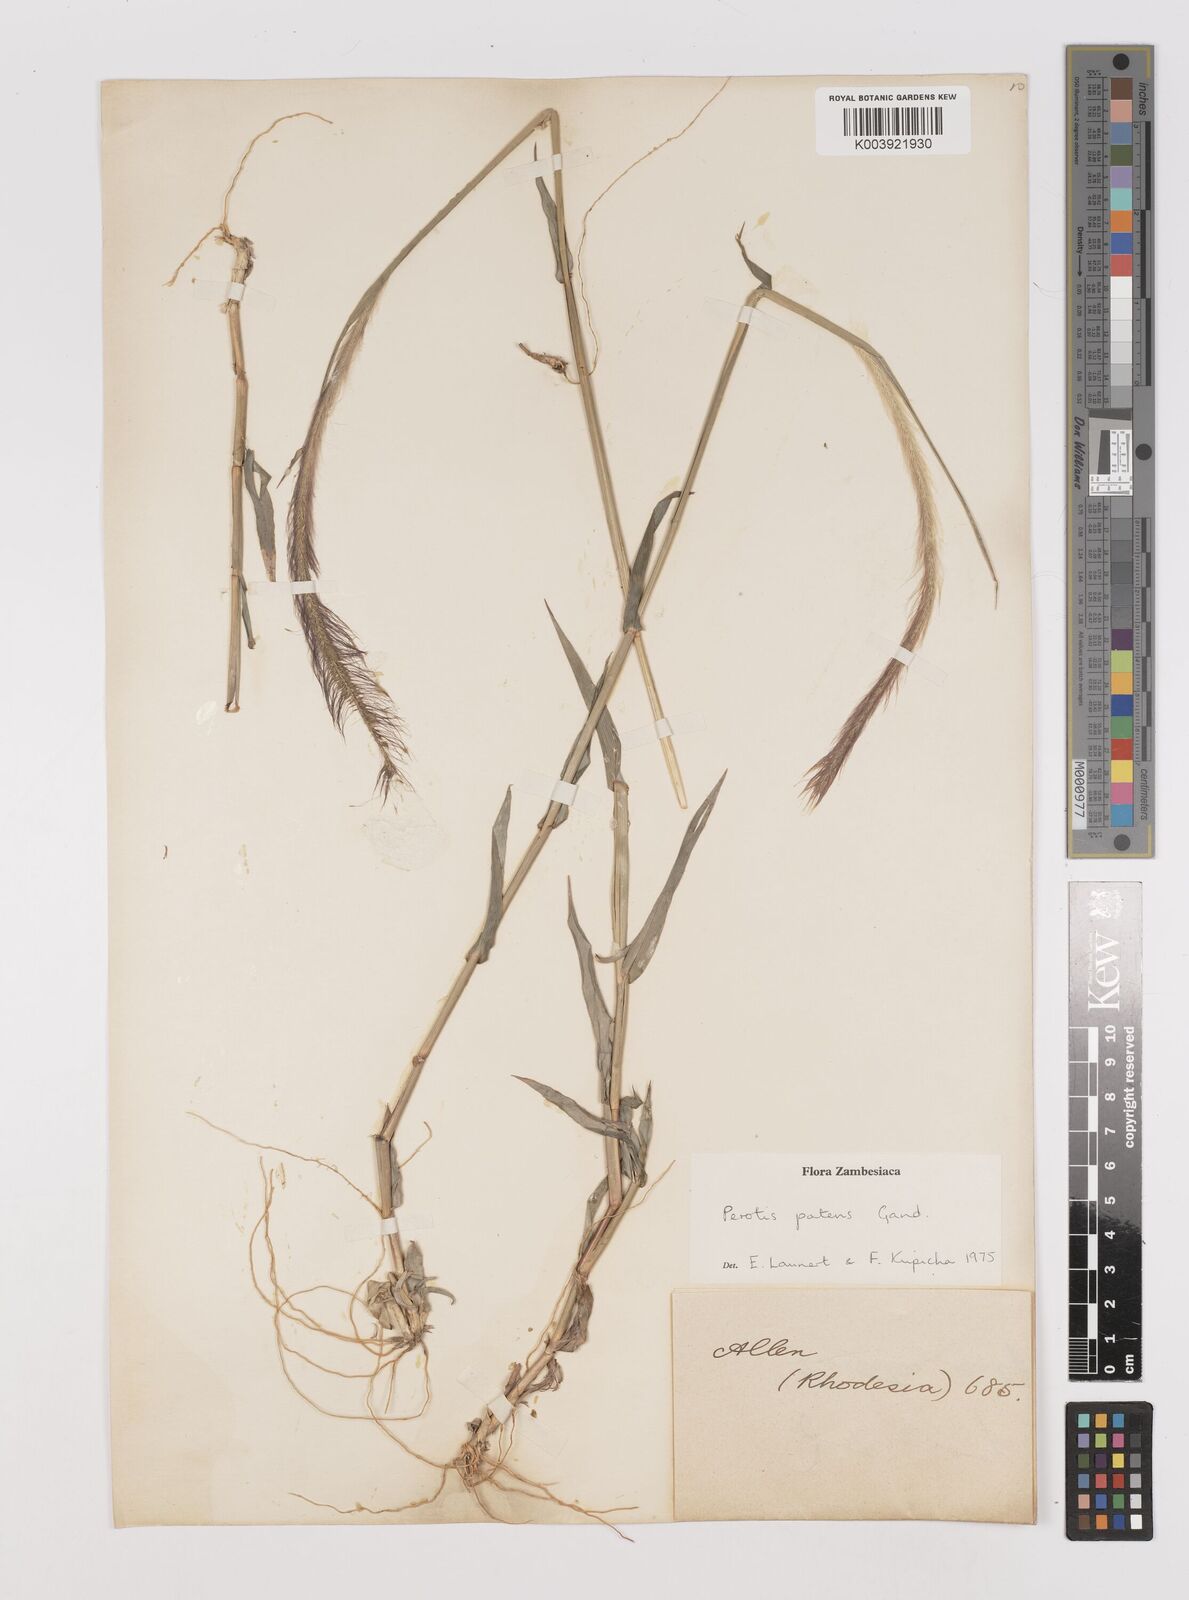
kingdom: Plantae
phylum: Tracheophyta
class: Liliopsida
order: Poales
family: Poaceae
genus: Perotis
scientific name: Perotis patens
